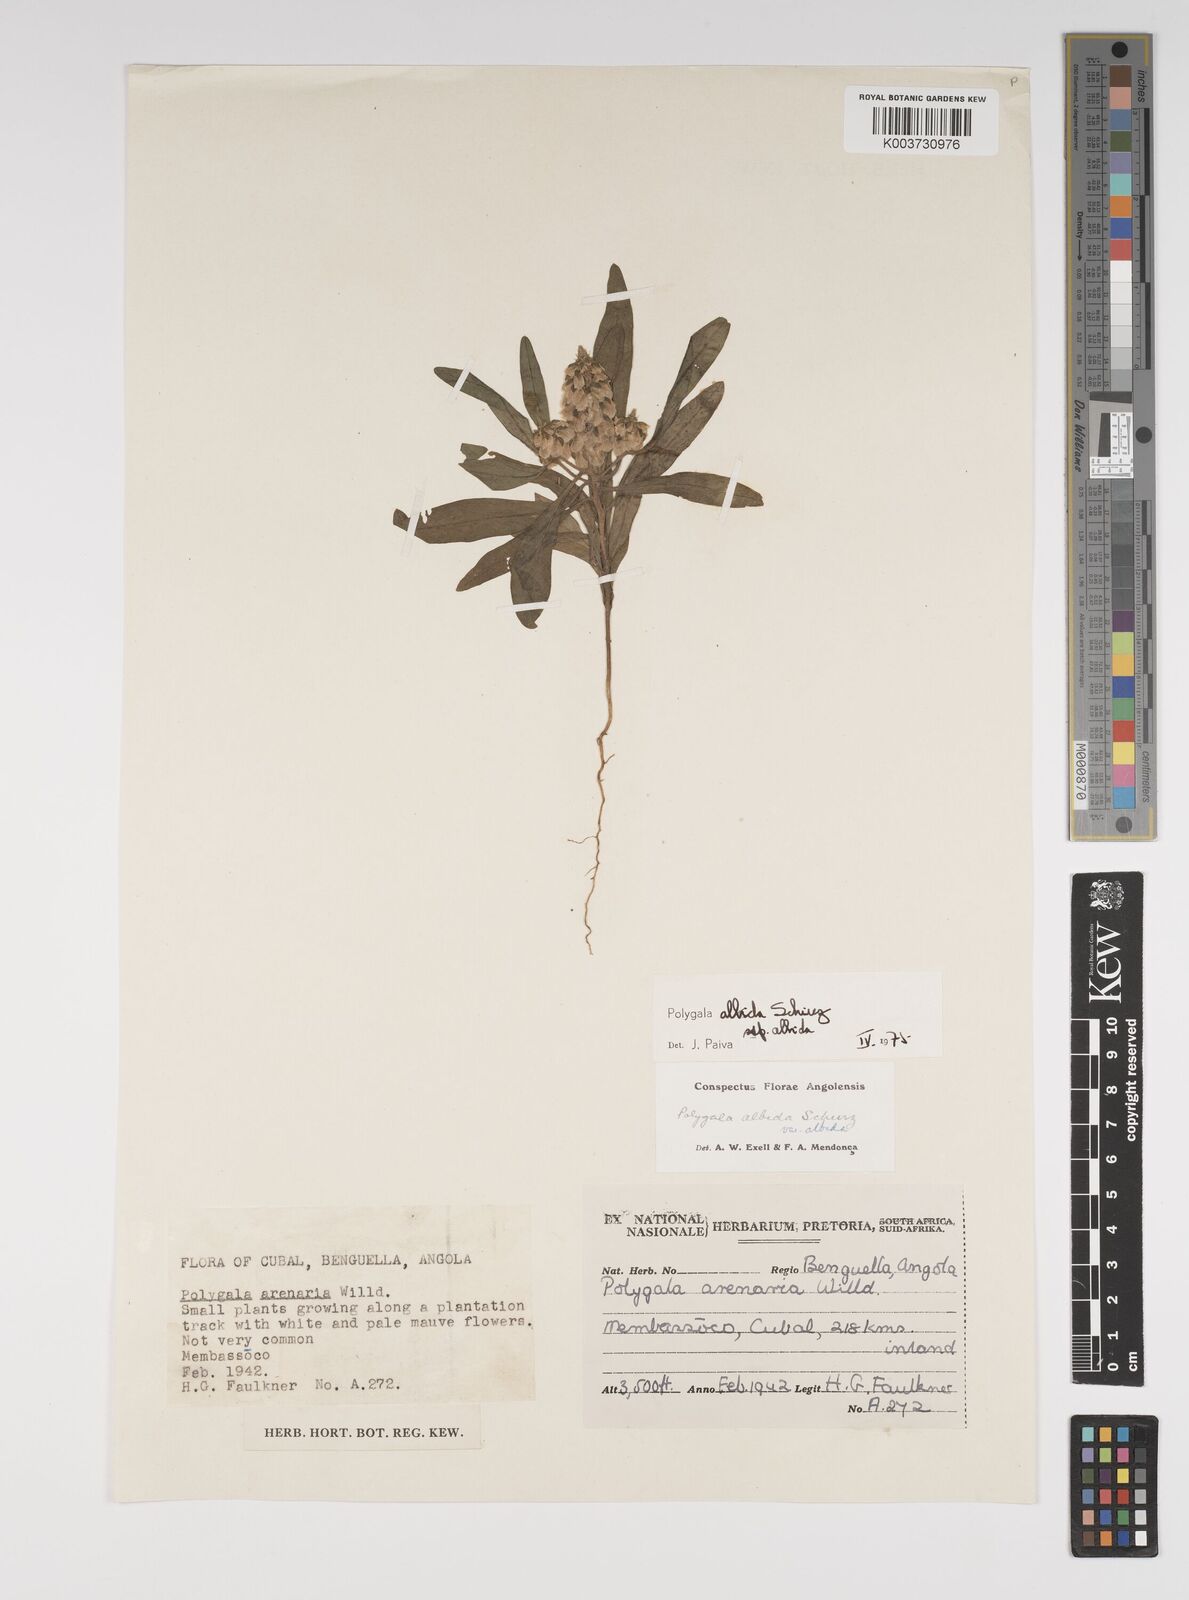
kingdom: Plantae
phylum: Tracheophyta
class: Magnoliopsida
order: Fabales
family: Polygalaceae
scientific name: Polygalaceae
